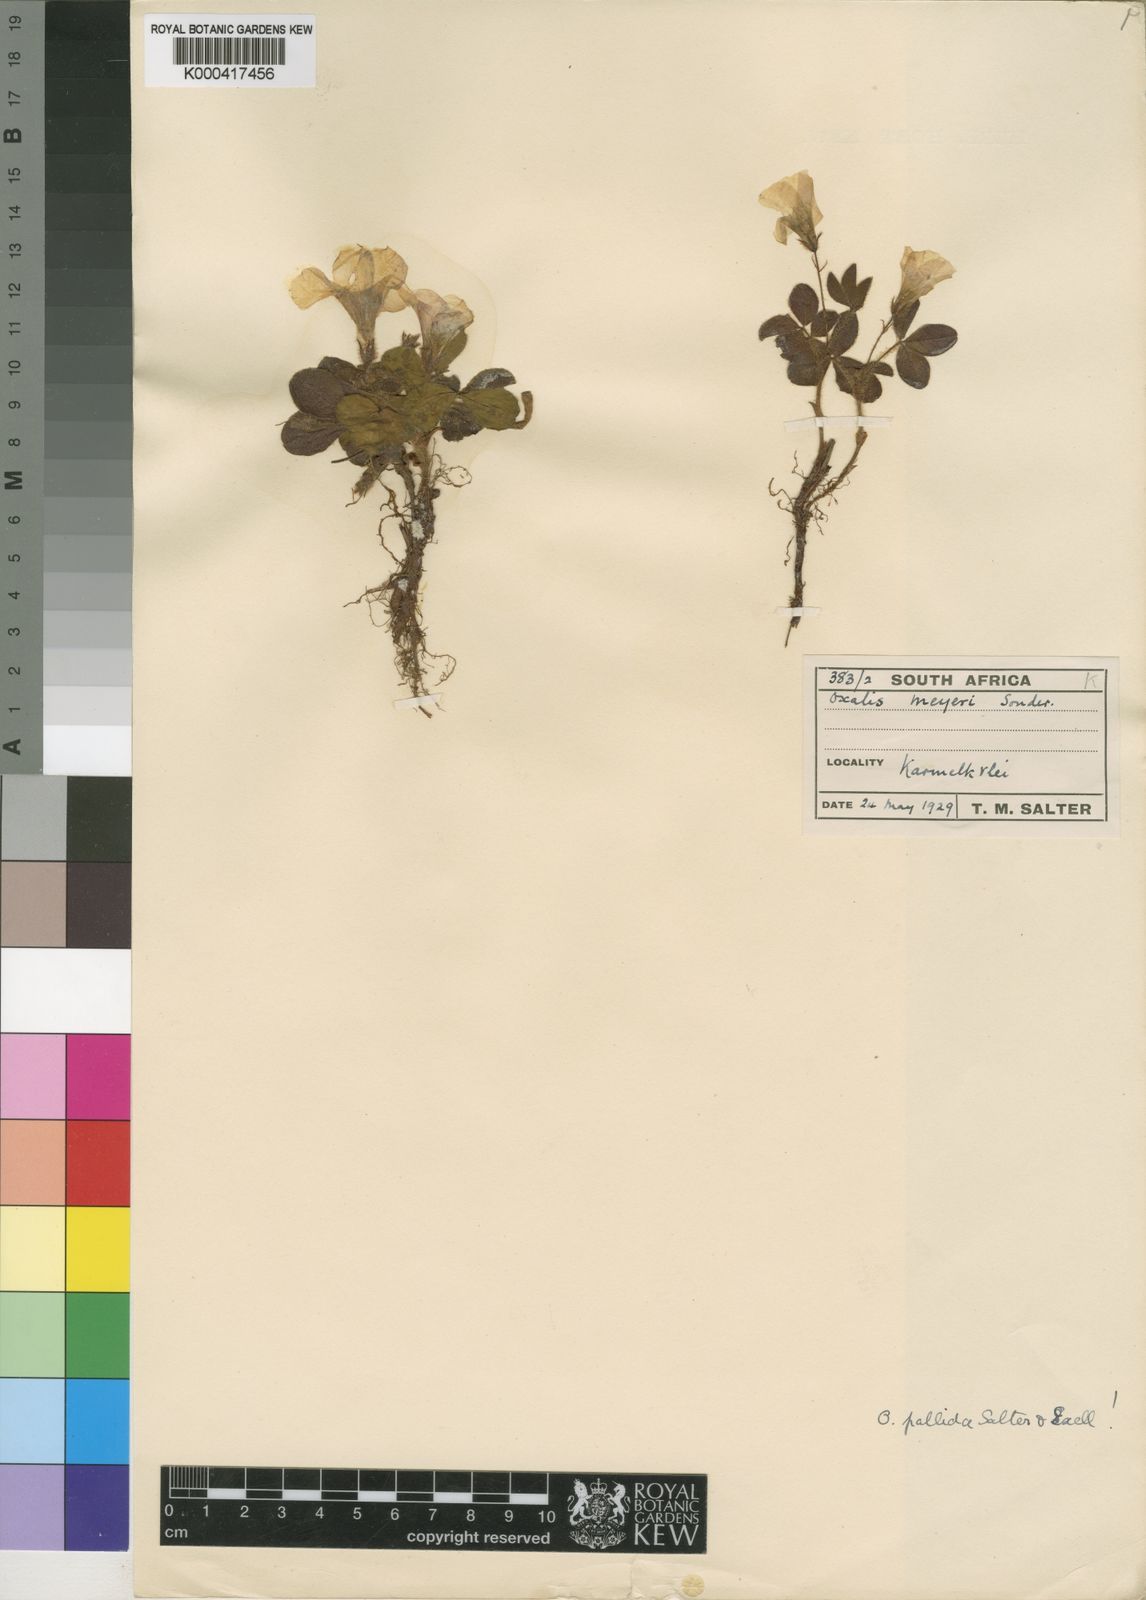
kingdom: Plantae
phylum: Tracheophyta
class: Magnoliopsida
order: Oxalidales
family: Oxalidaceae
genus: Oxalis
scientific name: Oxalis adspersa
